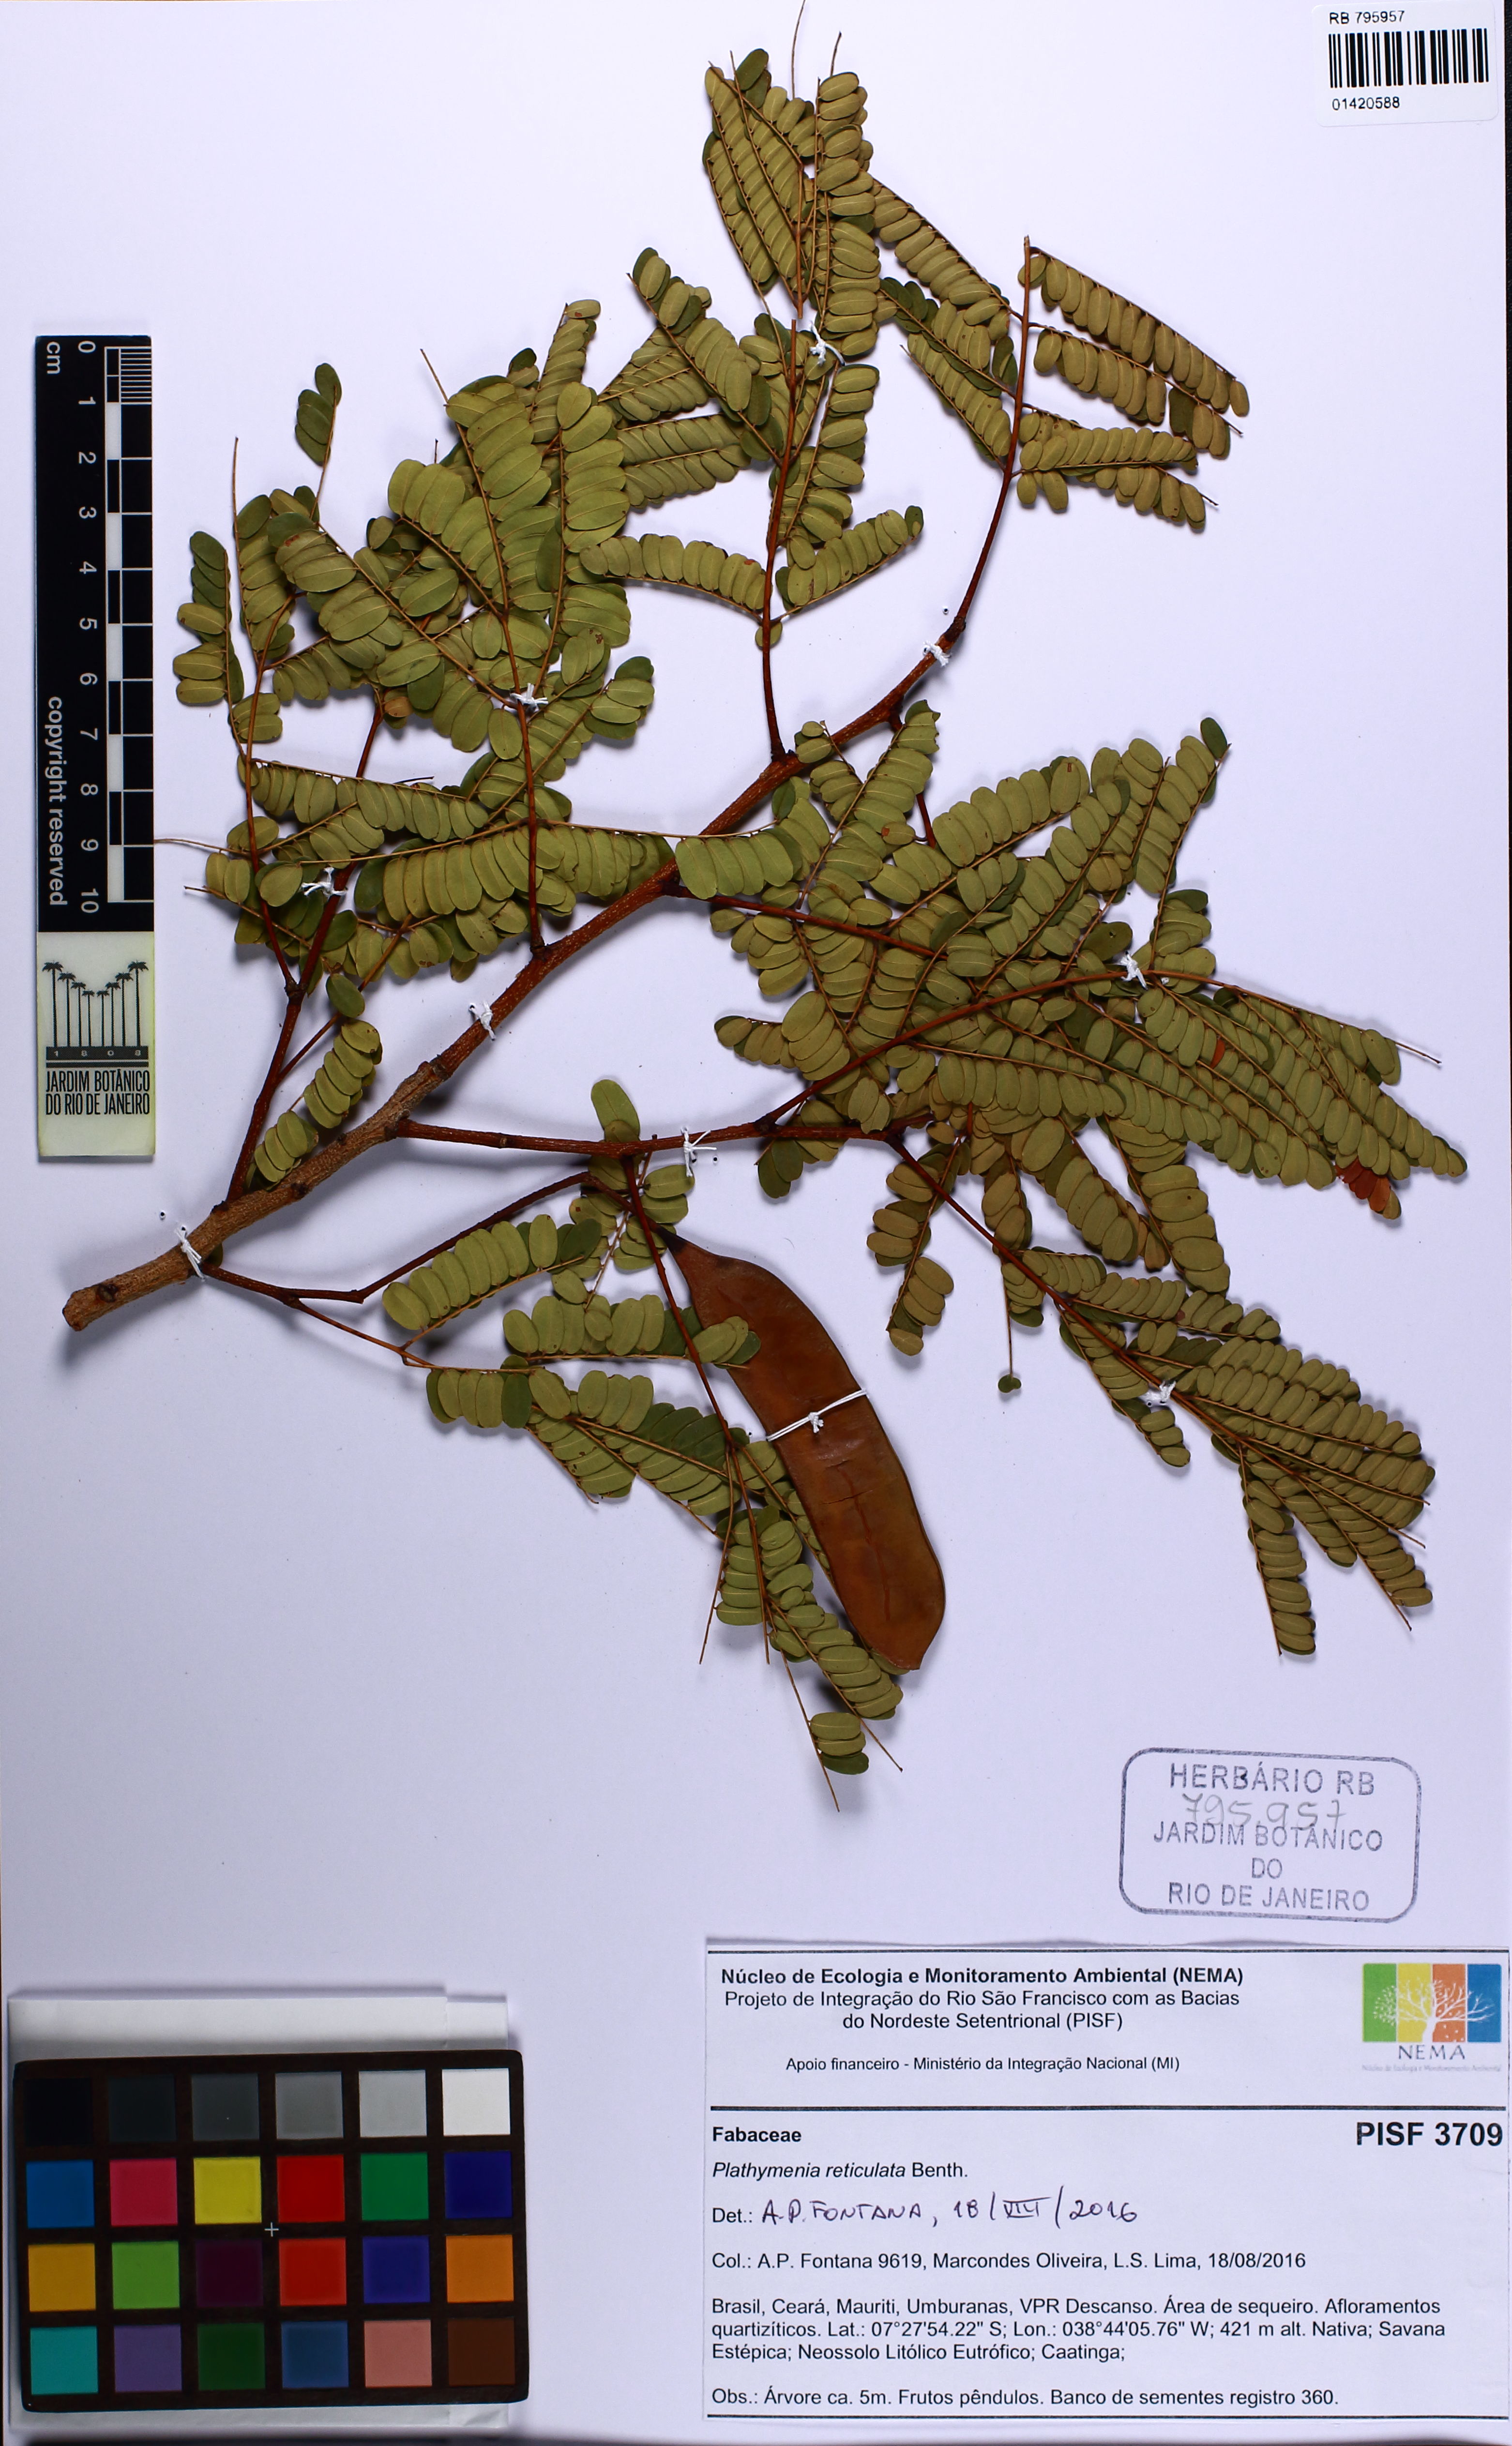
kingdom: Plantae
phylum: Tracheophyta
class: Magnoliopsida
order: Fabales
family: Fabaceae
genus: Plathymenia
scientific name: Plathymenia reticulata
